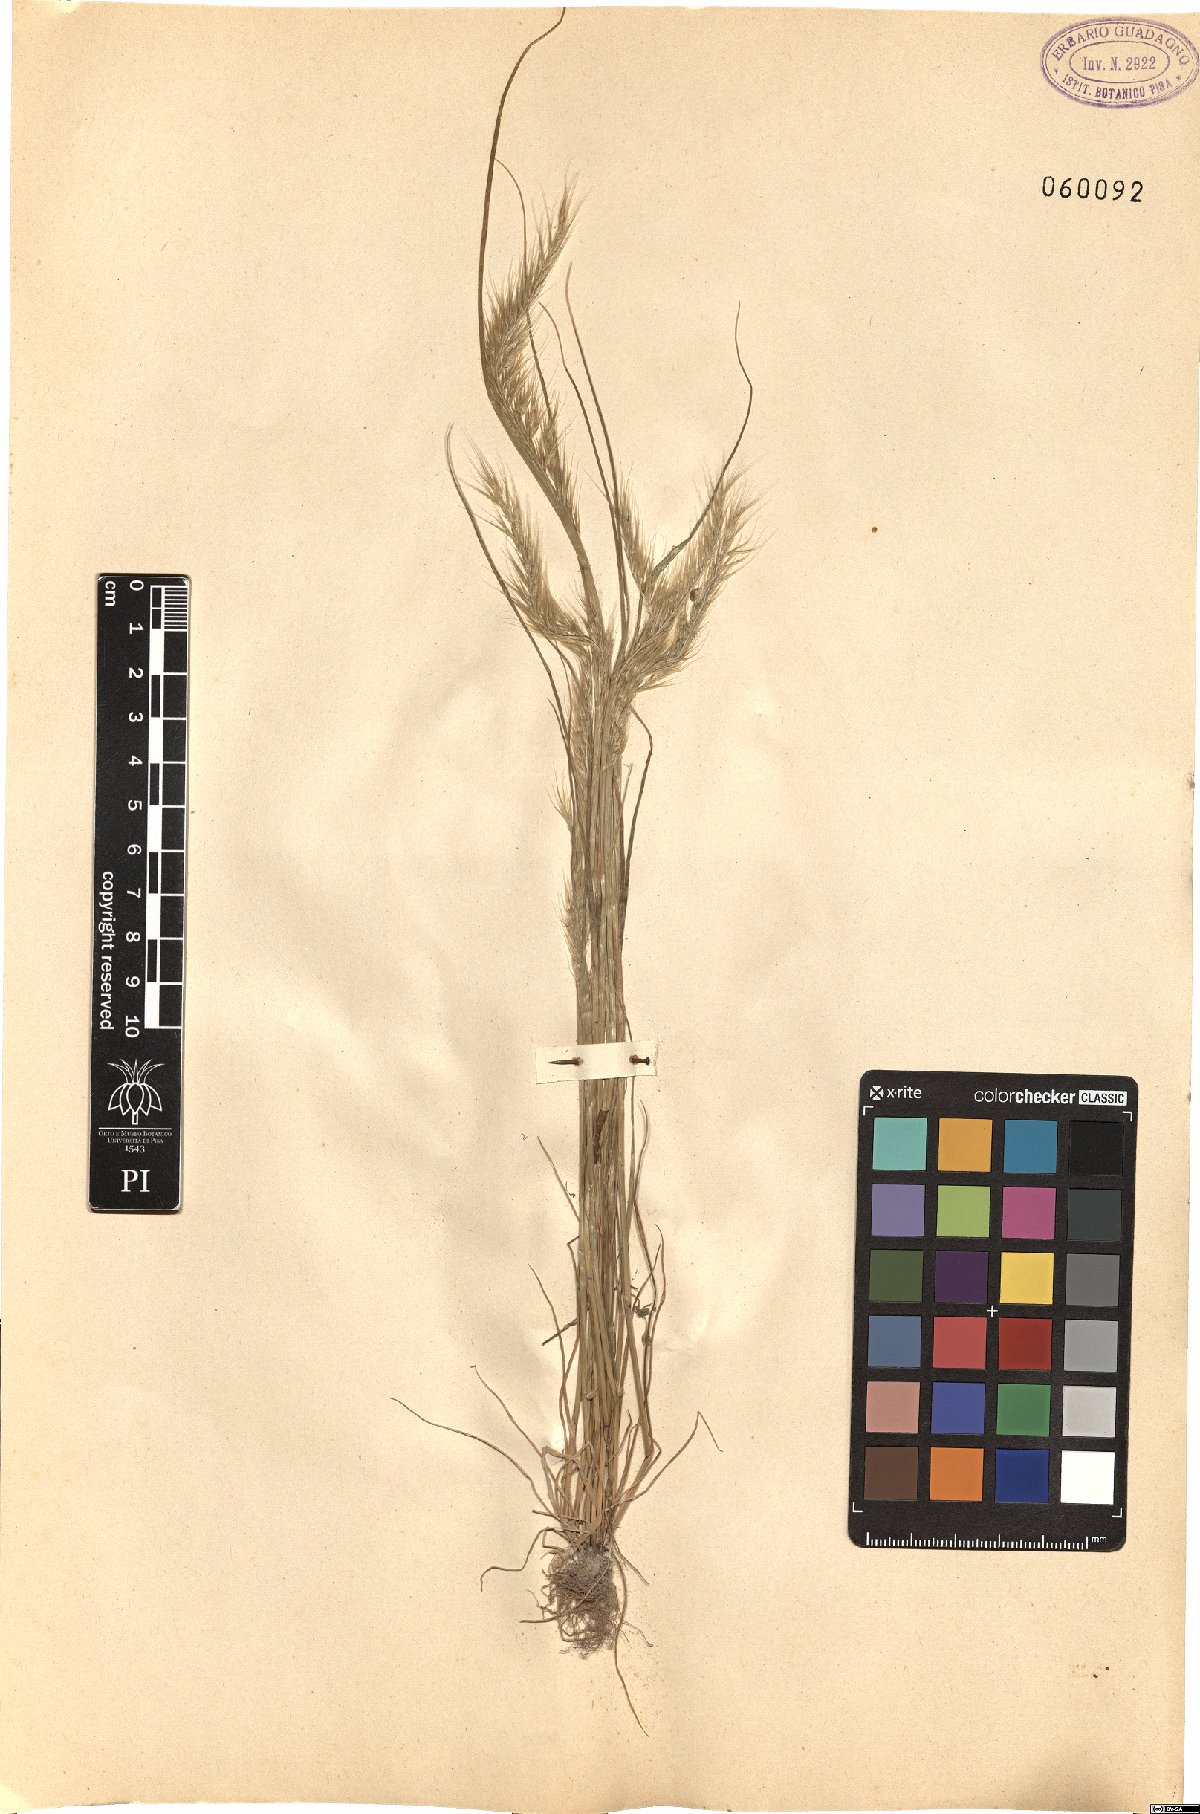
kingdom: Plantae
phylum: Tracheophyta
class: Liliopsida
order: Poales
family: Poaceae
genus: Festuca
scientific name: Festuca
